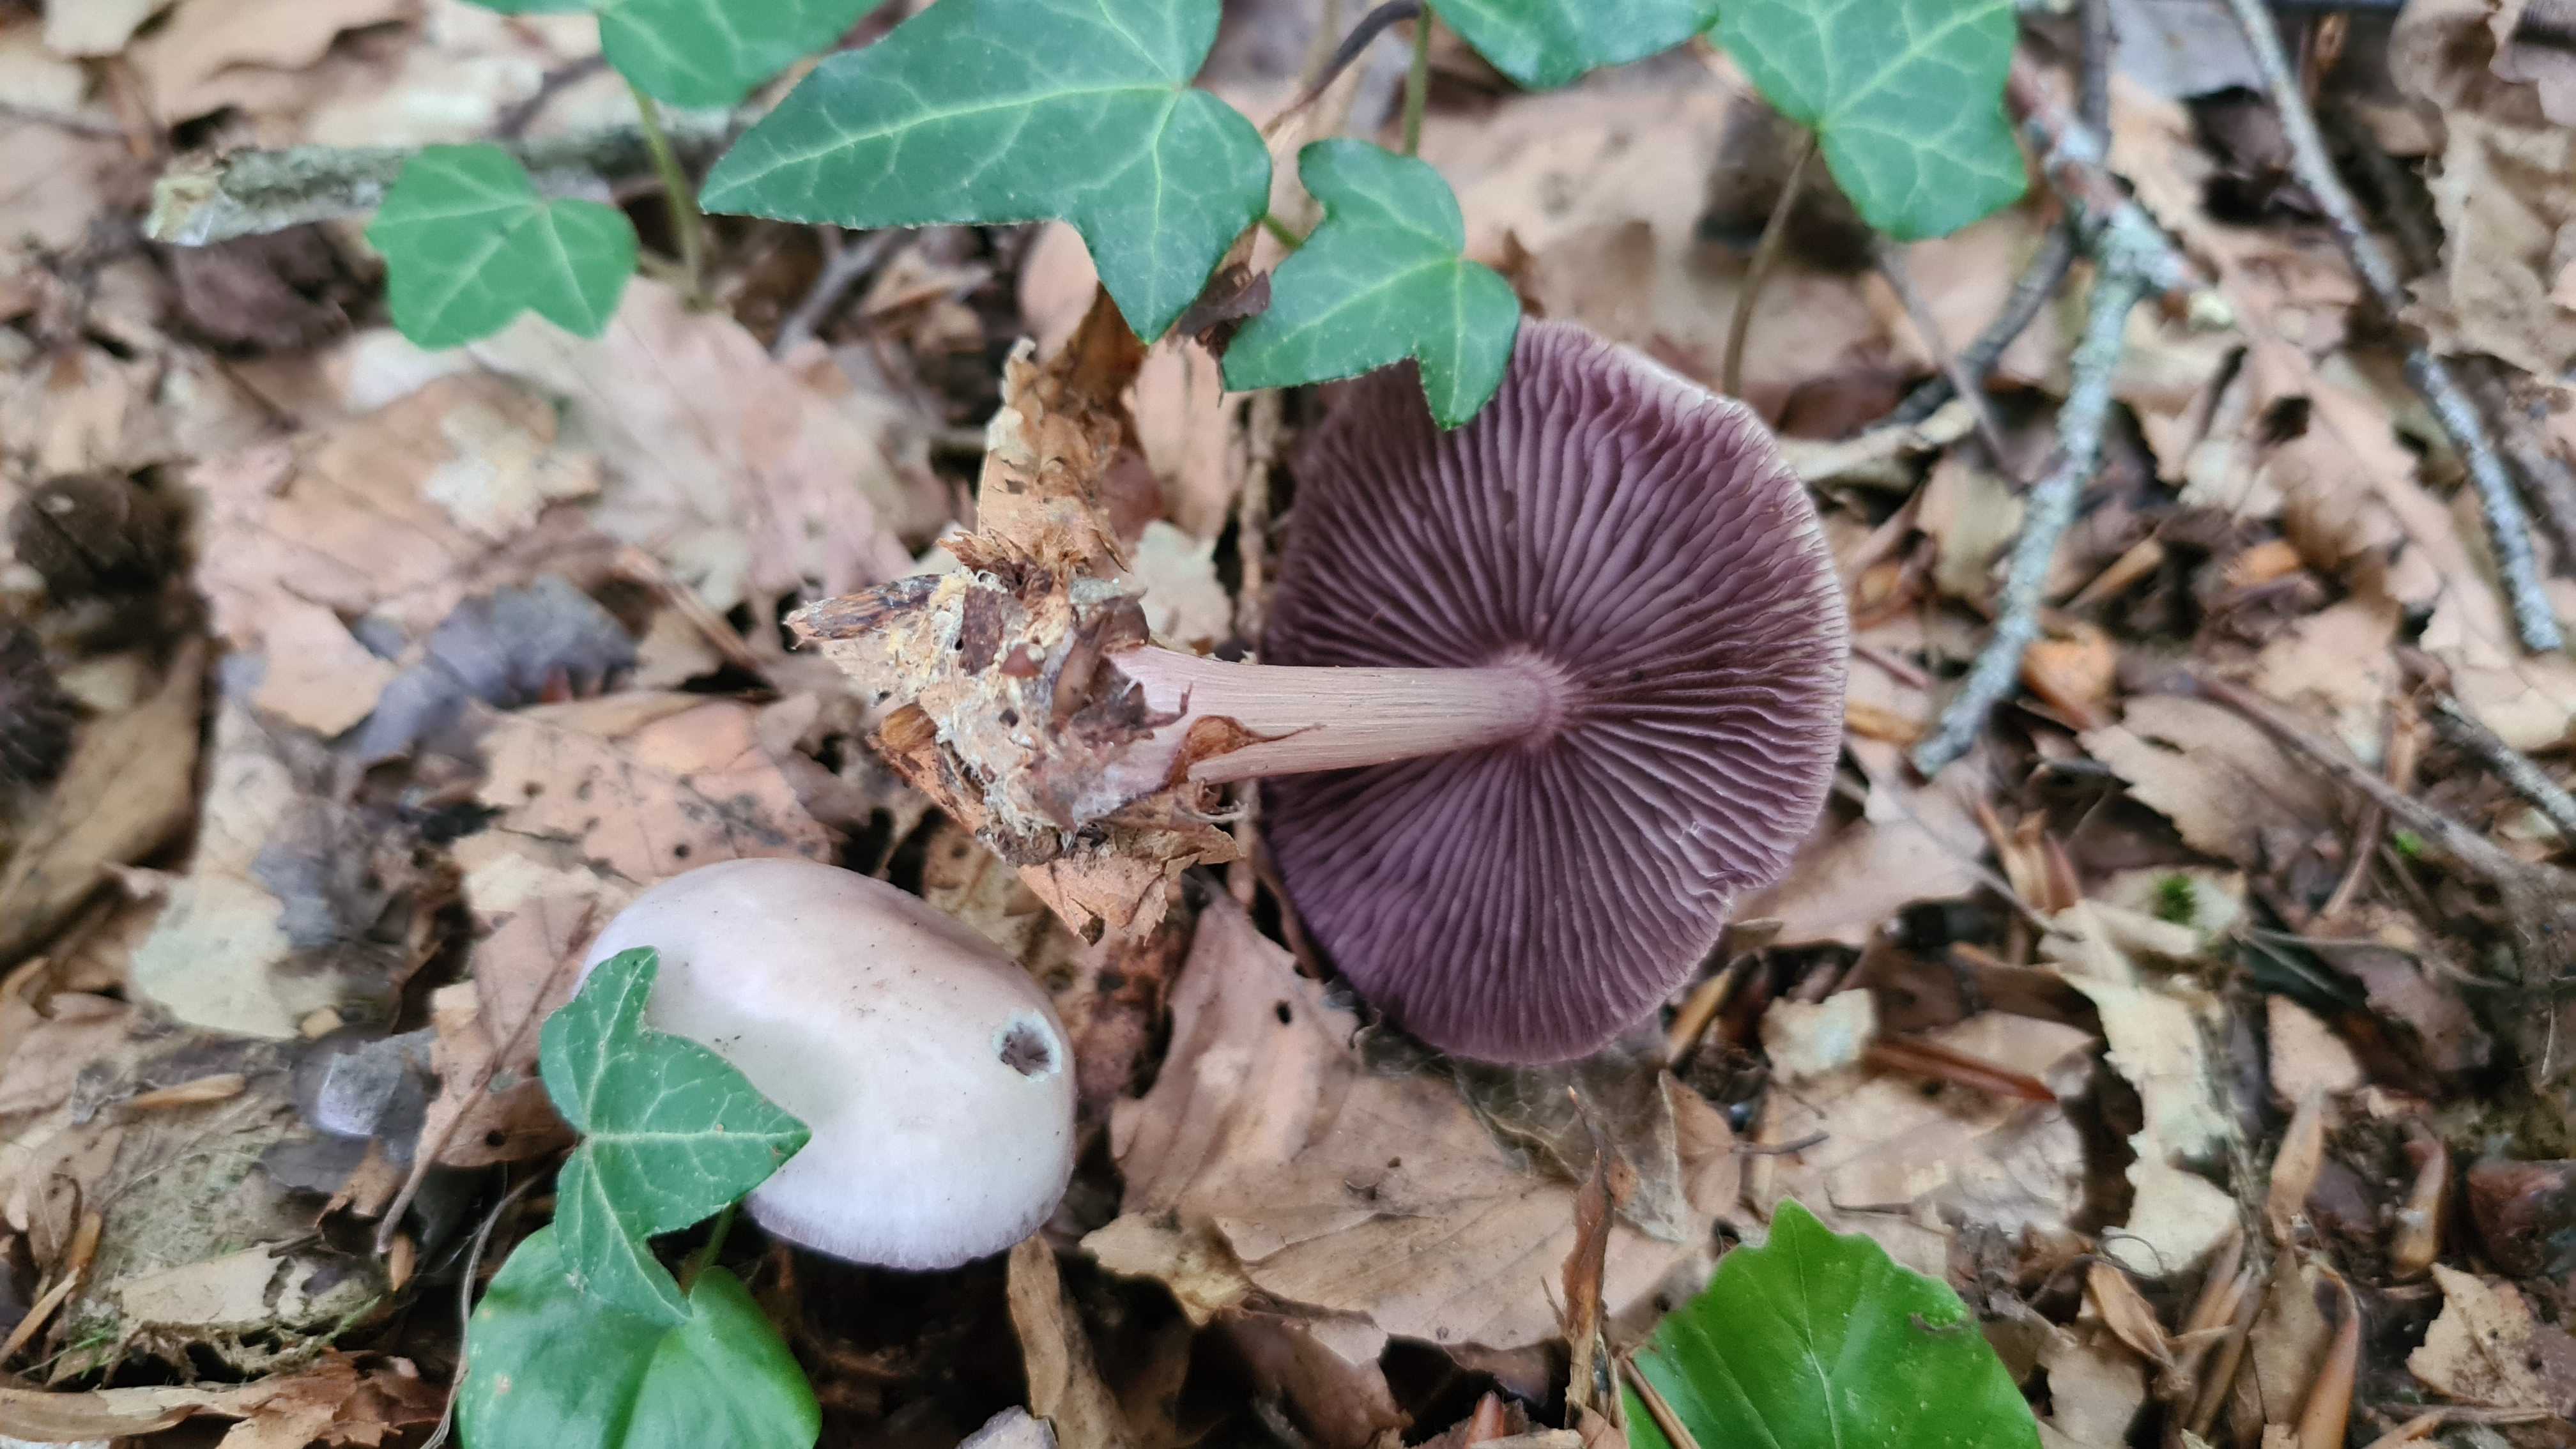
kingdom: Fungi
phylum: Basidiomycota
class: Agaricomycetes
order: Agaricales
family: Mycenaceae
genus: Mycena
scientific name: Mycena pelianthina
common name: mørkbladet huesvamp
